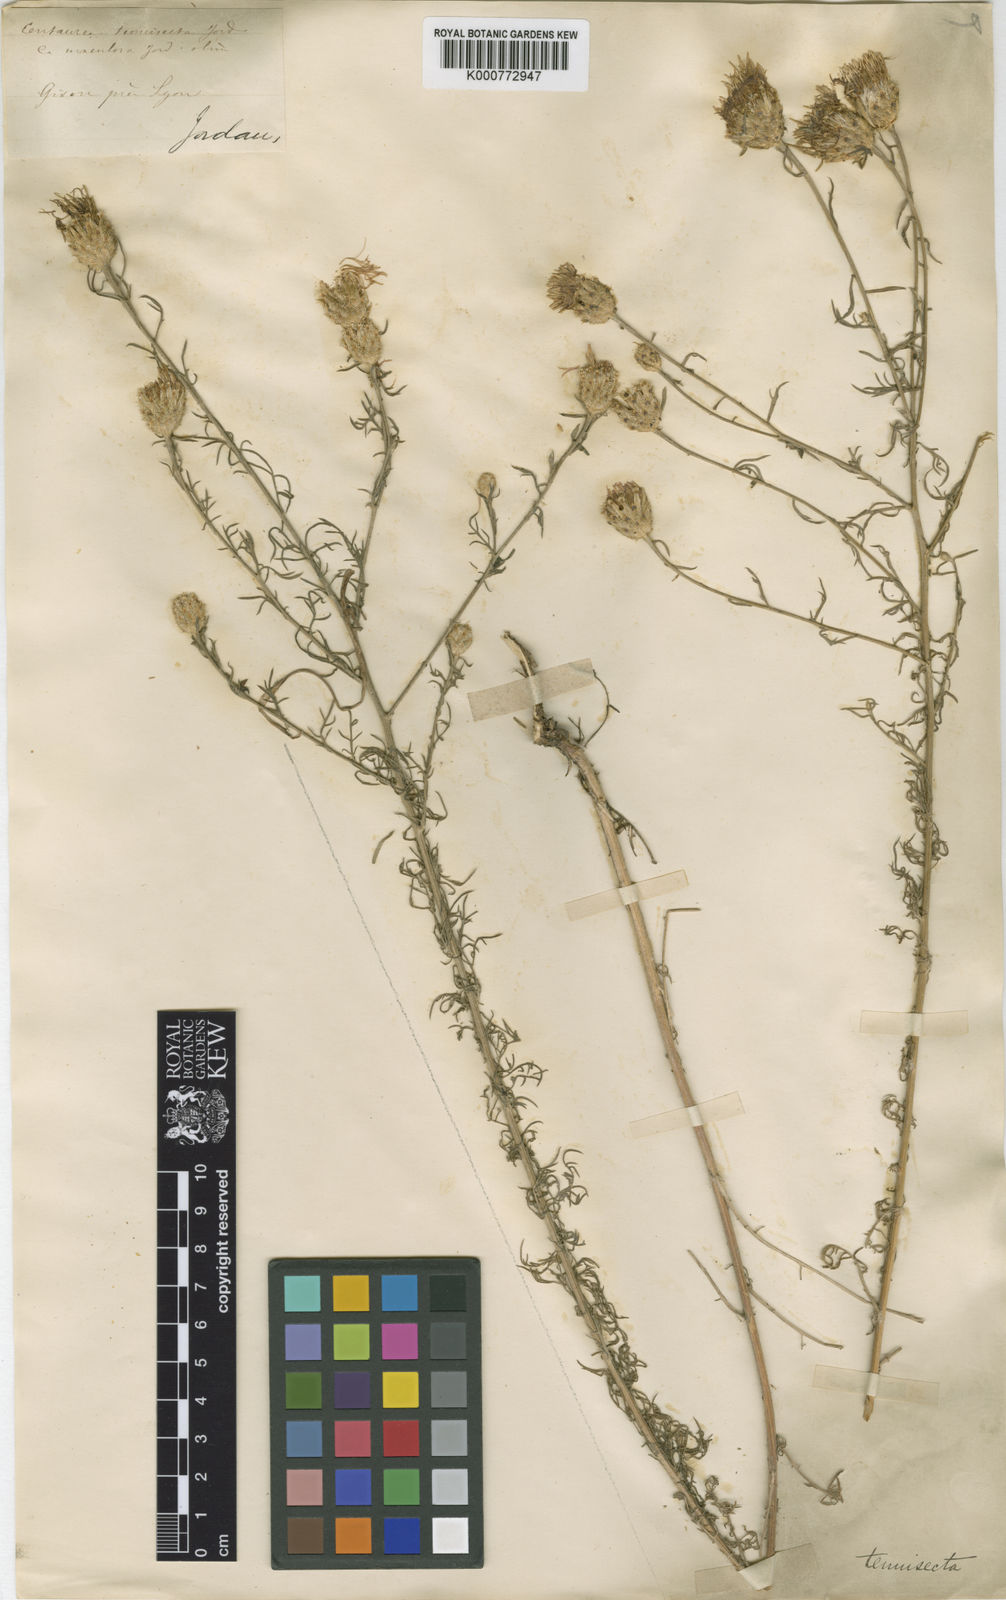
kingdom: Plantae
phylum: Tracheophyta
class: Magnoliopsida
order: Asterales
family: Asteraceae
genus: Centaurea
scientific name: Centaurea stoebe
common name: Spotted knapweed
